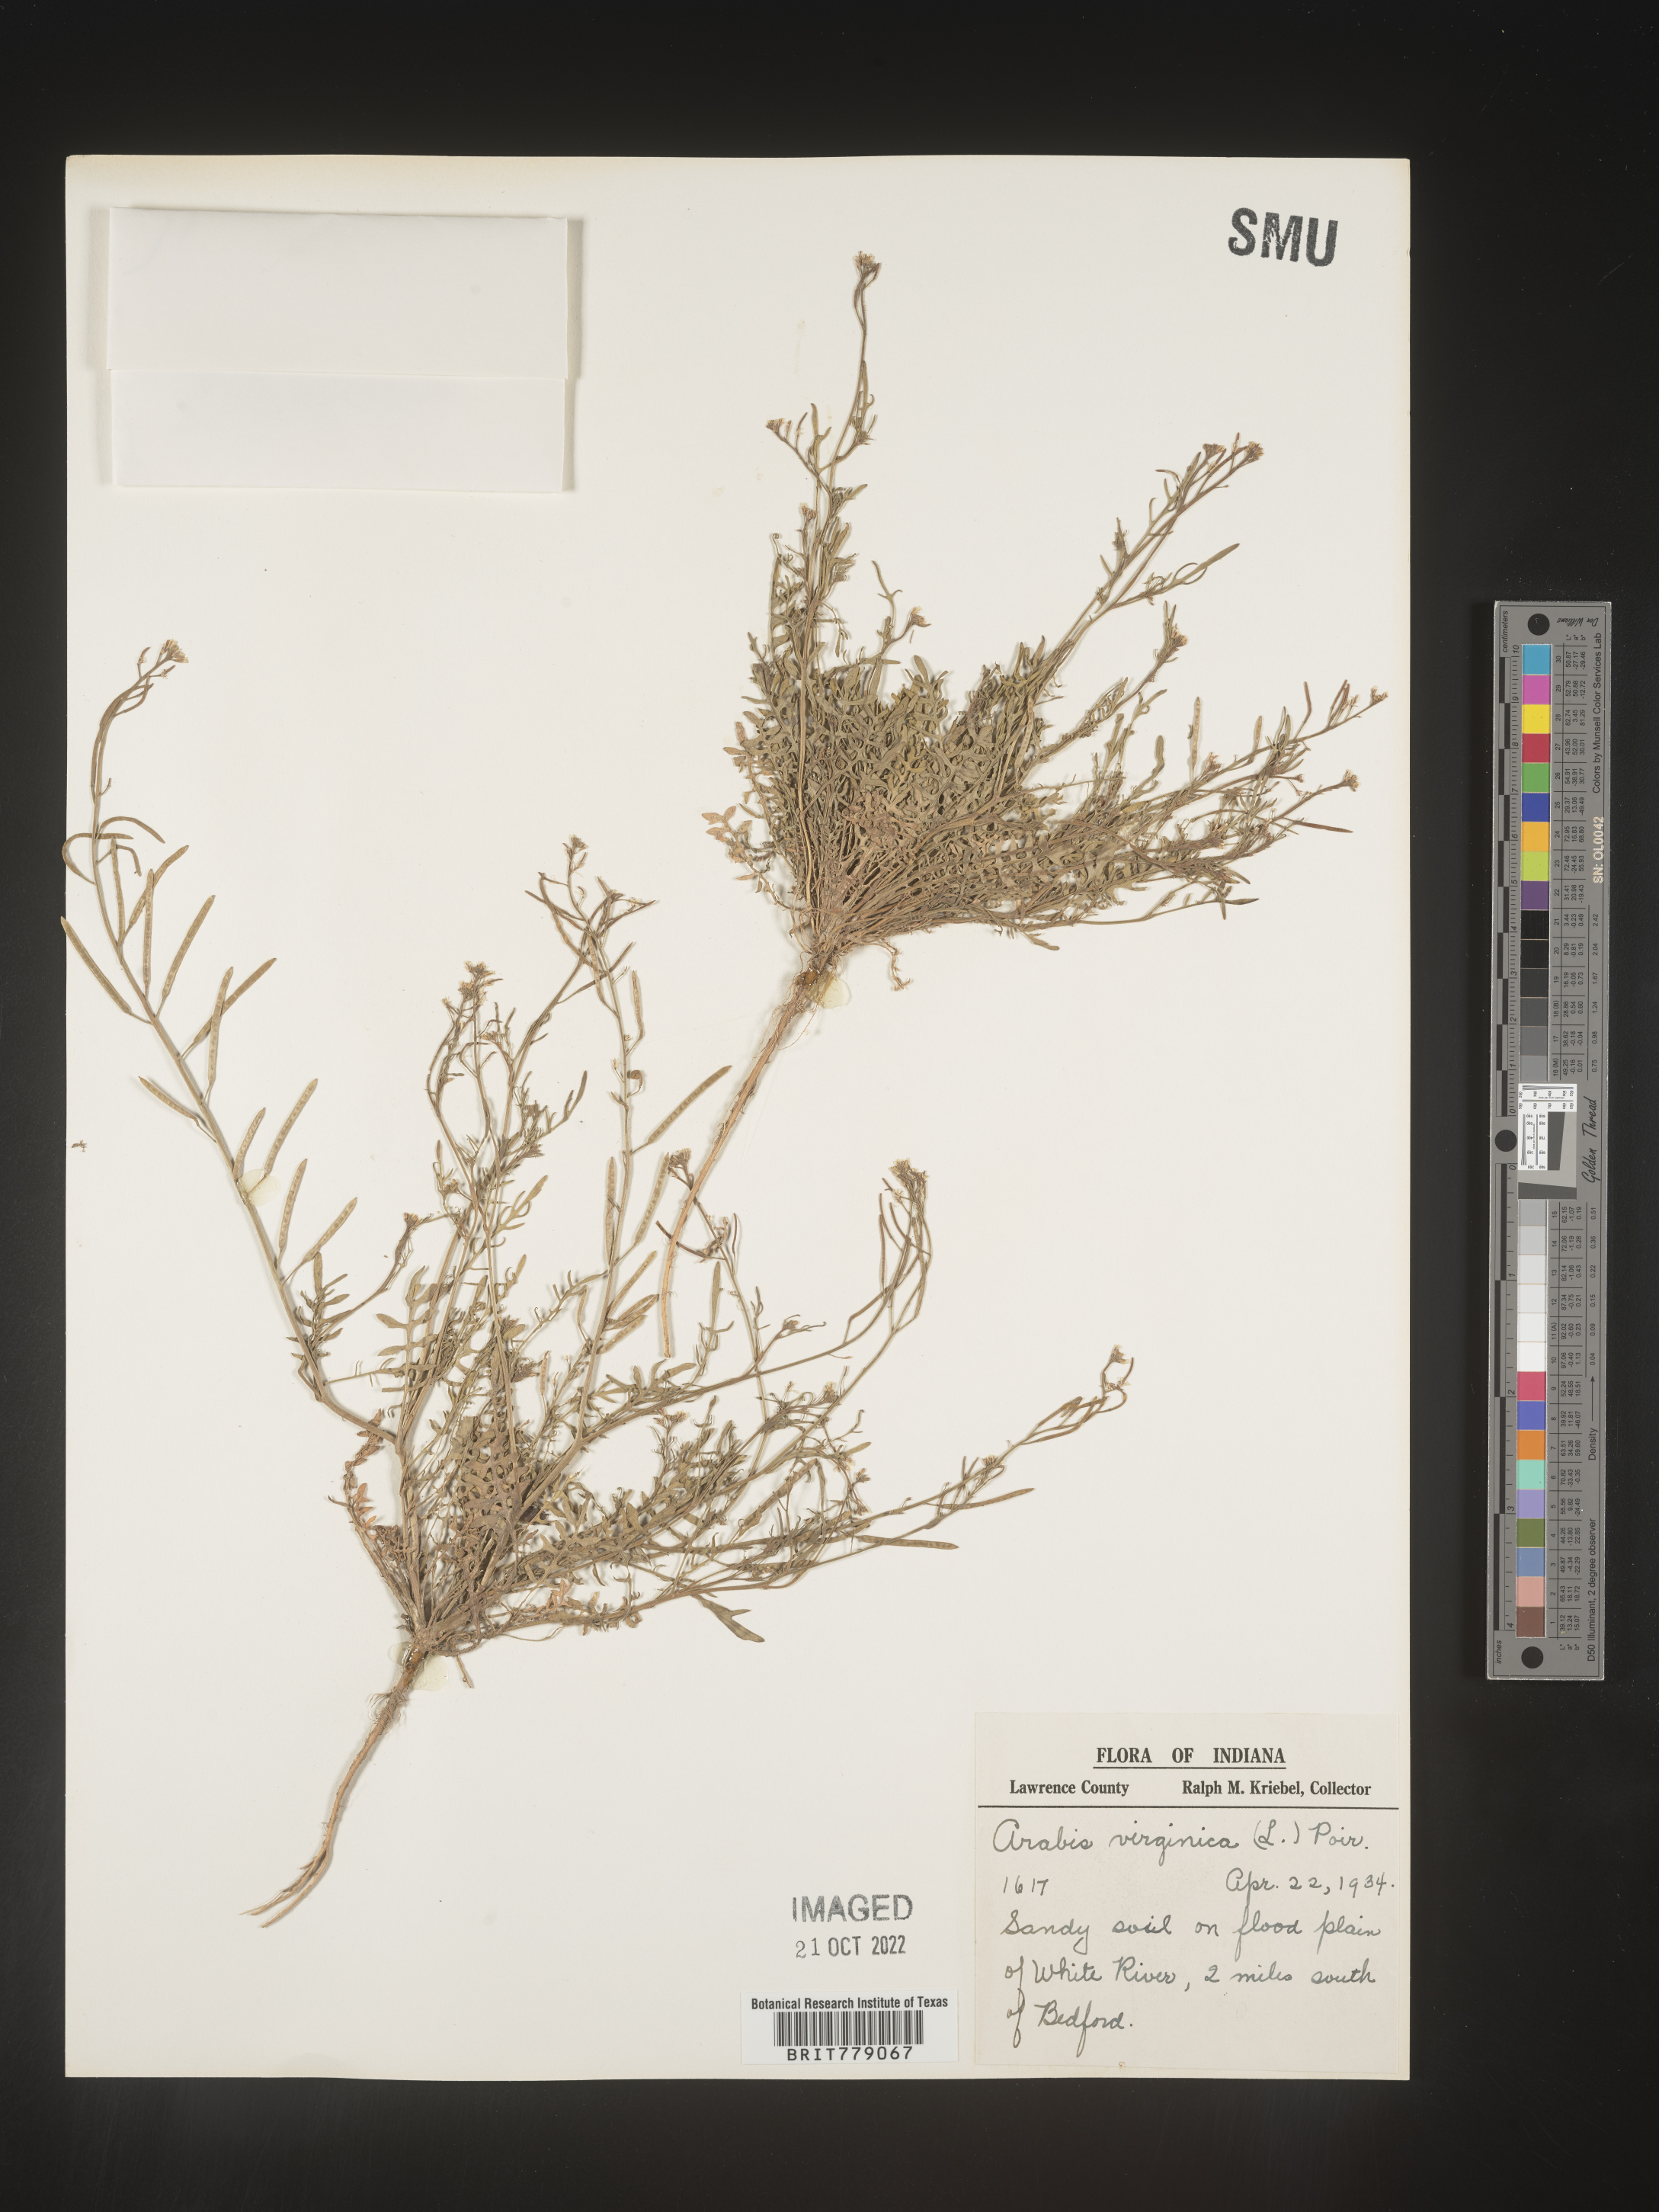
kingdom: Plantae
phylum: Tracheophyta
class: Magnoliopsida
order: Brassicales
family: Brassicaceae
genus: Sibara
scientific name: Sibara
